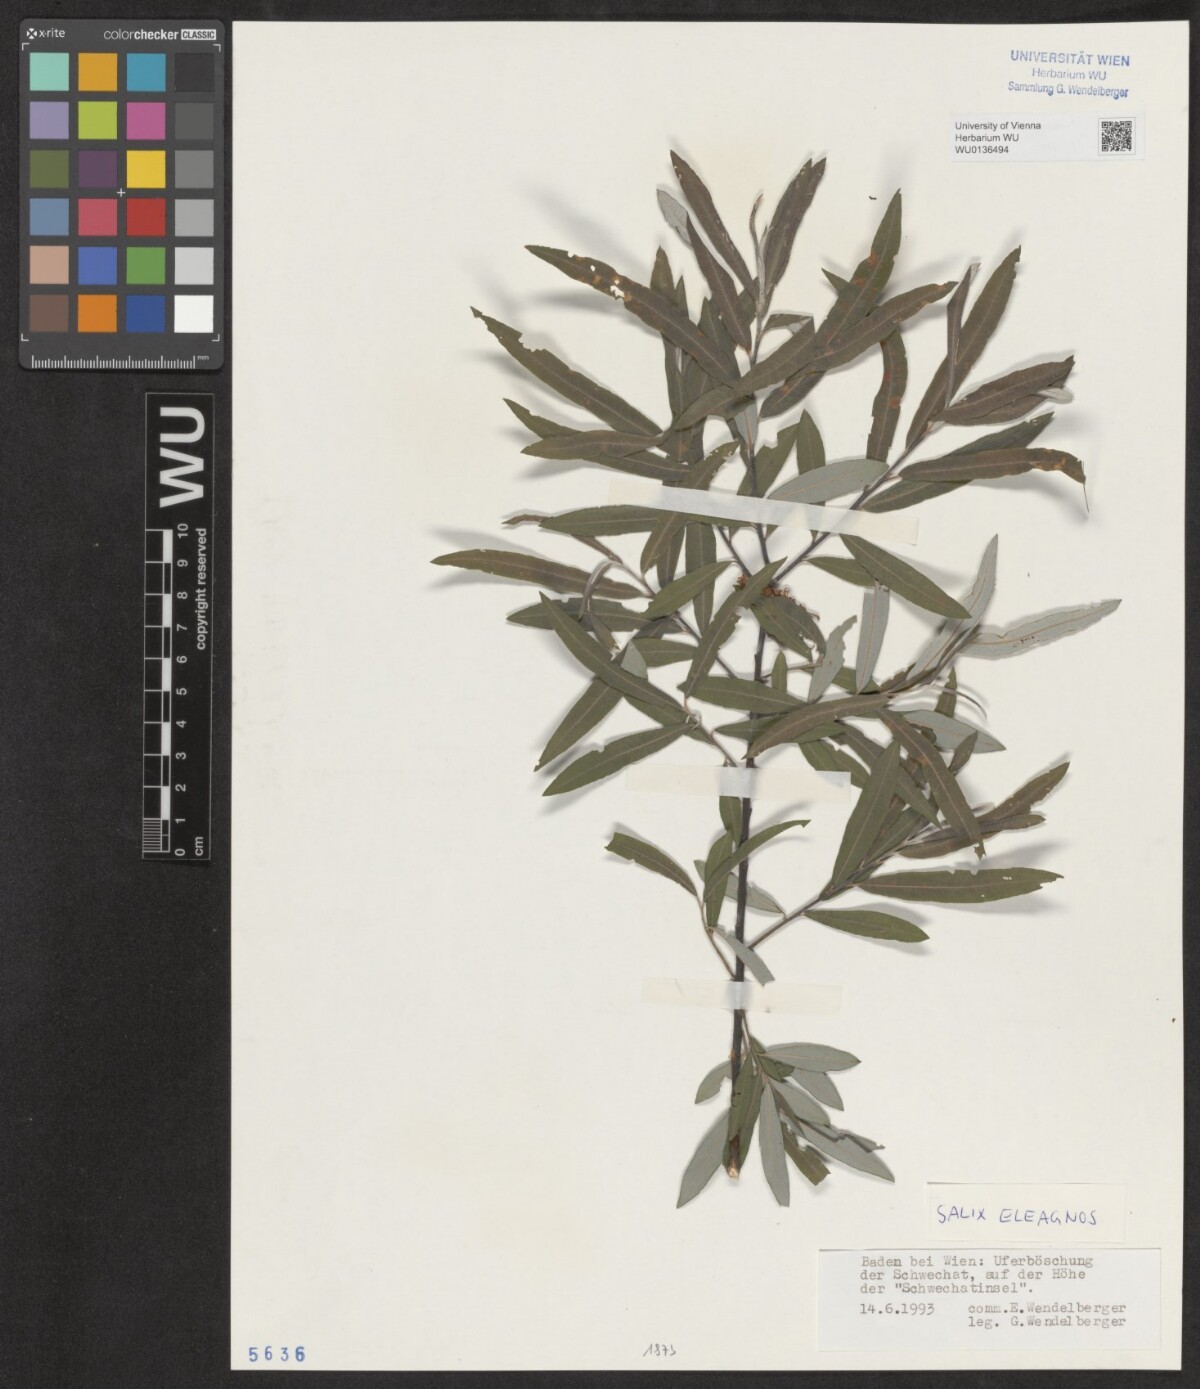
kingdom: Plantae
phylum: Tracheophyta
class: Magnoliopsida
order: Malpighiales
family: Salicaceae
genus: Salix
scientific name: Salix eleagnos
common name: Elaeagnus willow
